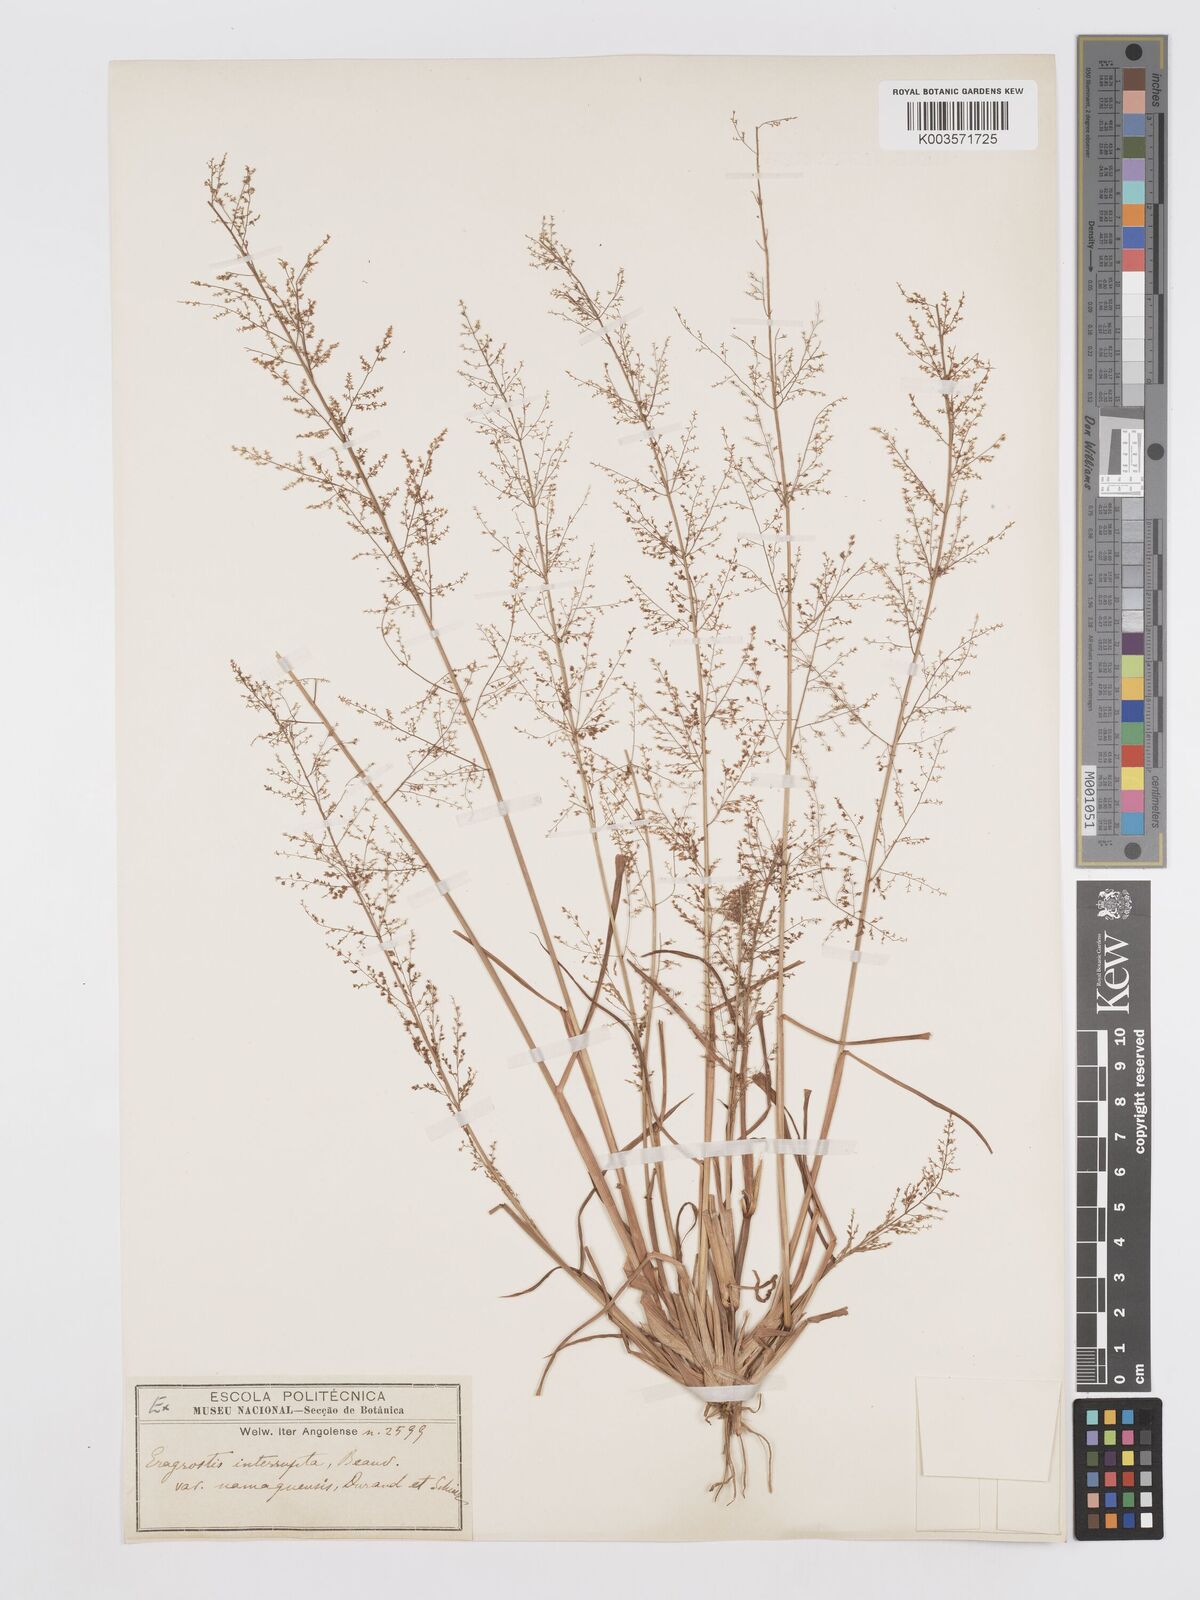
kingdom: Plantae
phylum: Tracheophyta
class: Liliopsida
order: Poales
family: Poaceae
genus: Eragrostis
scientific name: Eragrostis japonica
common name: Pond lovegrass
